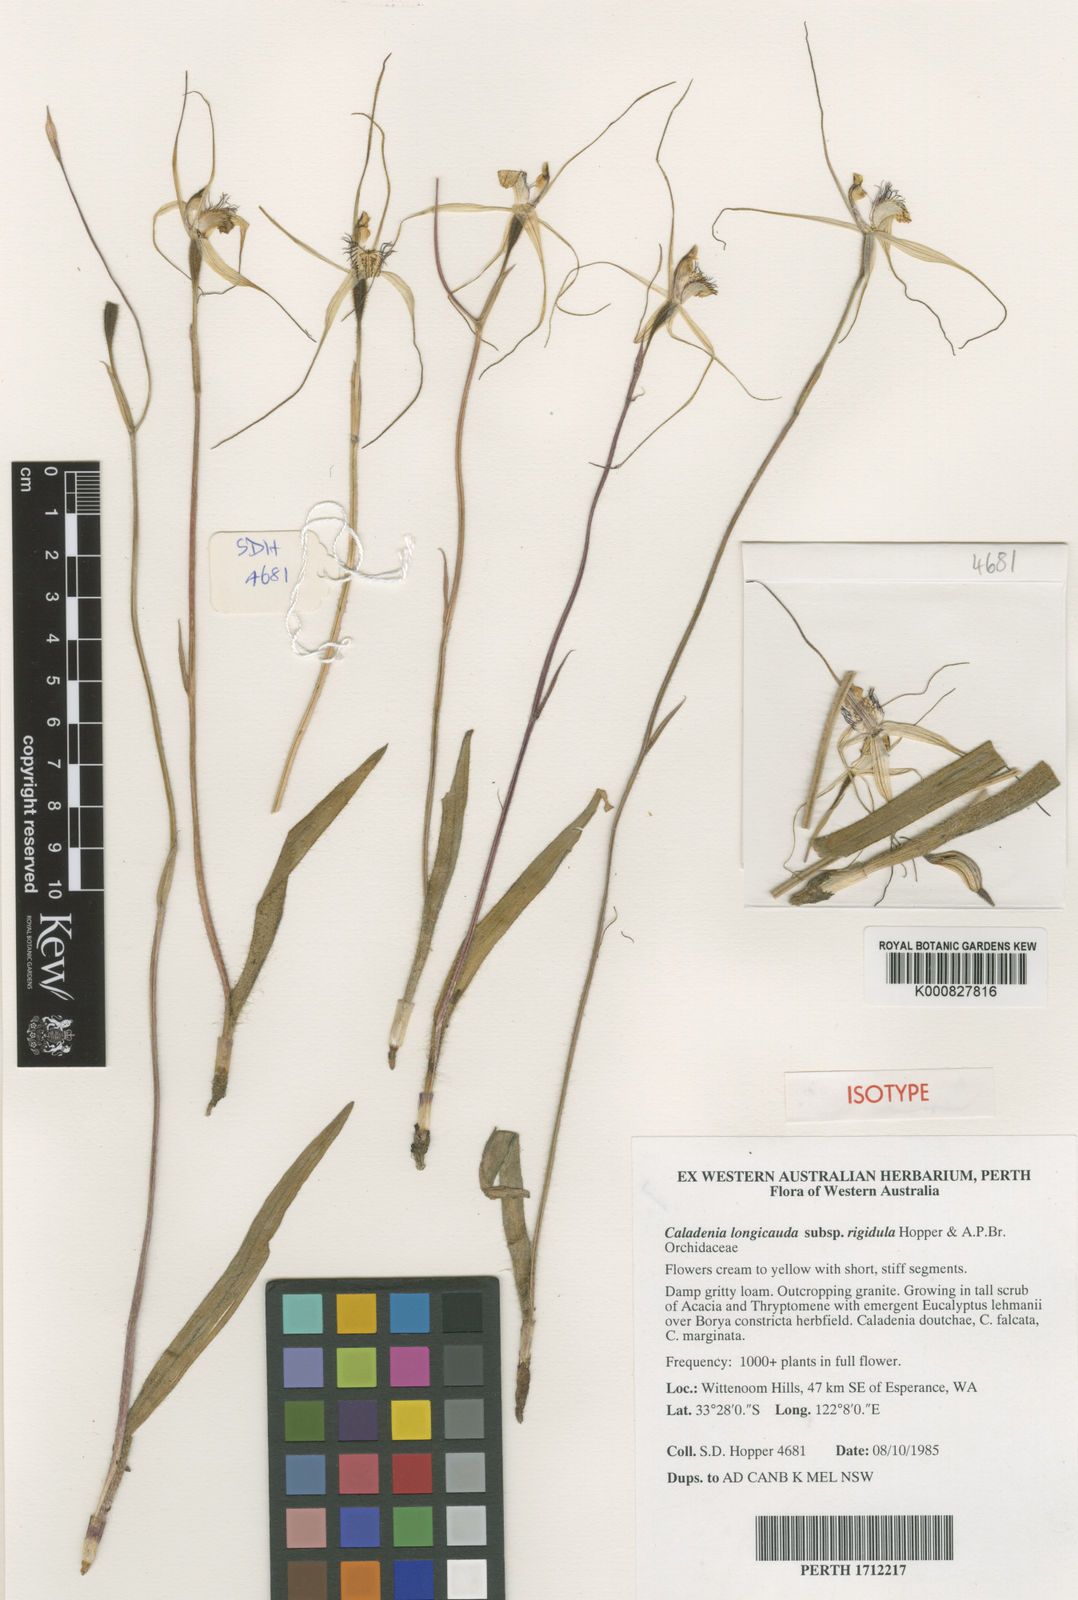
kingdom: Plantae
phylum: Tracheophyta
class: Liliopsida
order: Asparagales
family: Orchidaceae
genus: Caladenia
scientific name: Caladenia longicauda
